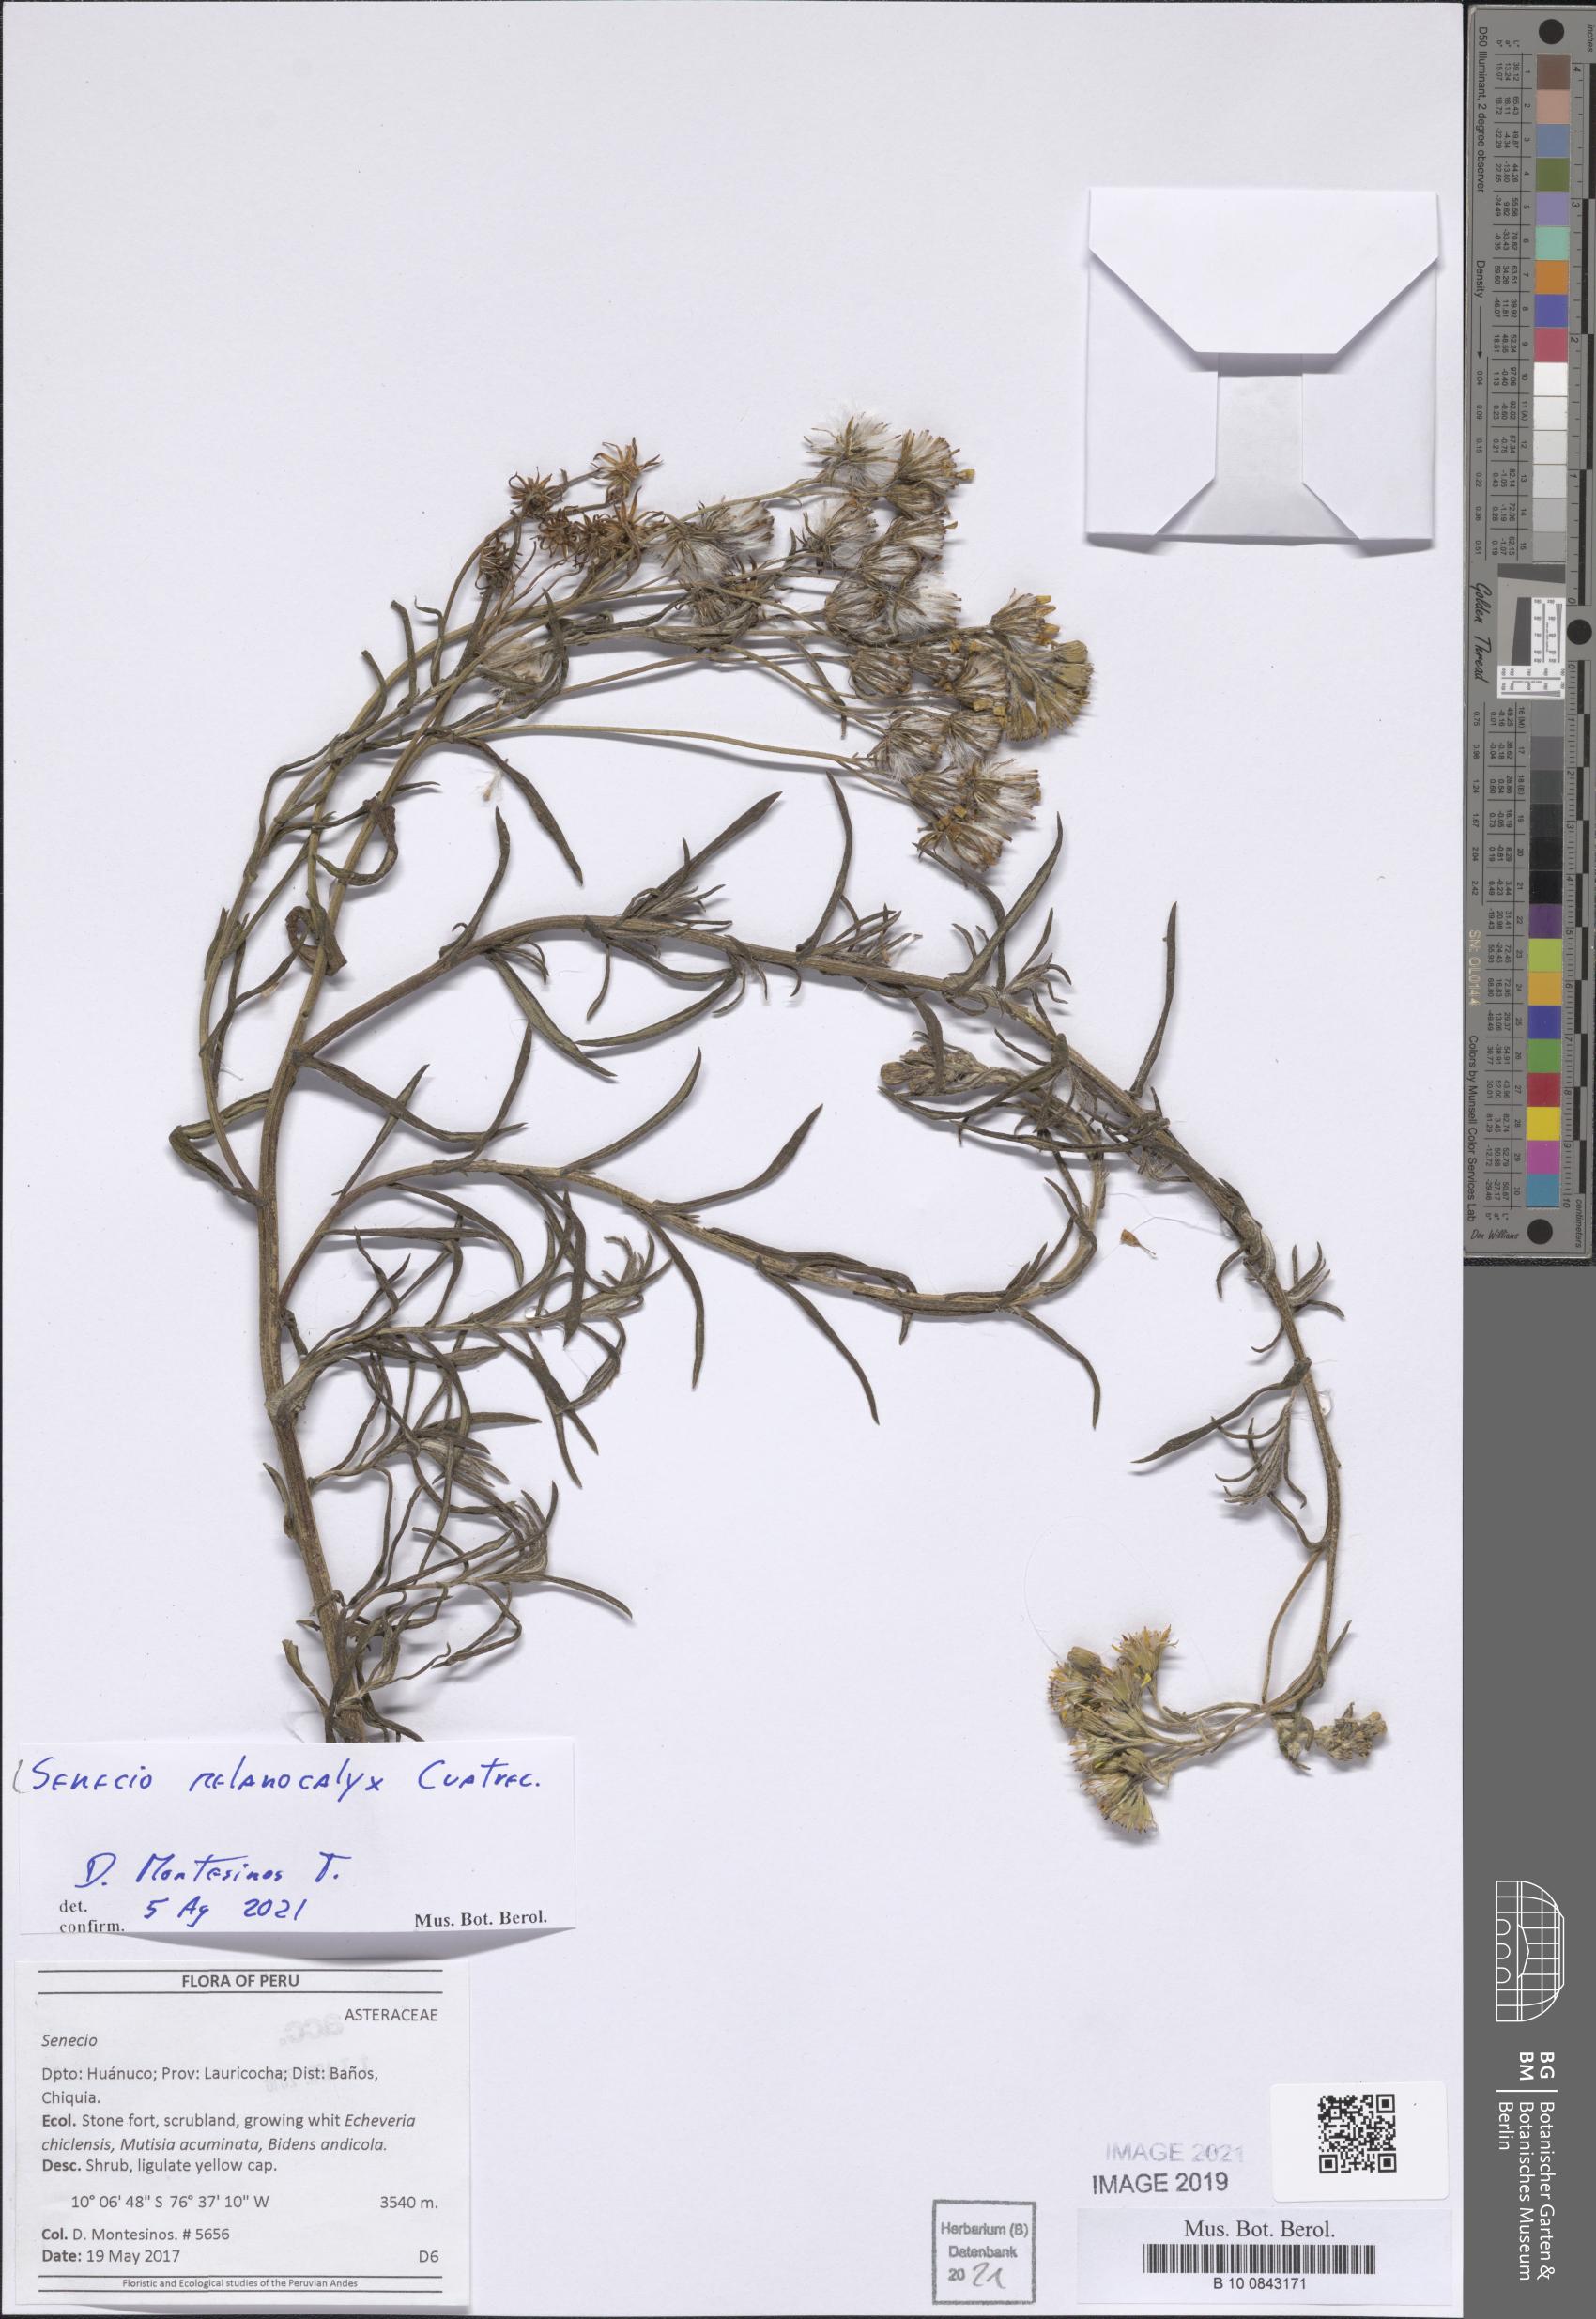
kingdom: Plantae
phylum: Tracheophyta
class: Magnoliopsida
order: Asterales
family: Asteraceae
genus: Senecio
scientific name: Senecio melanocalyx
